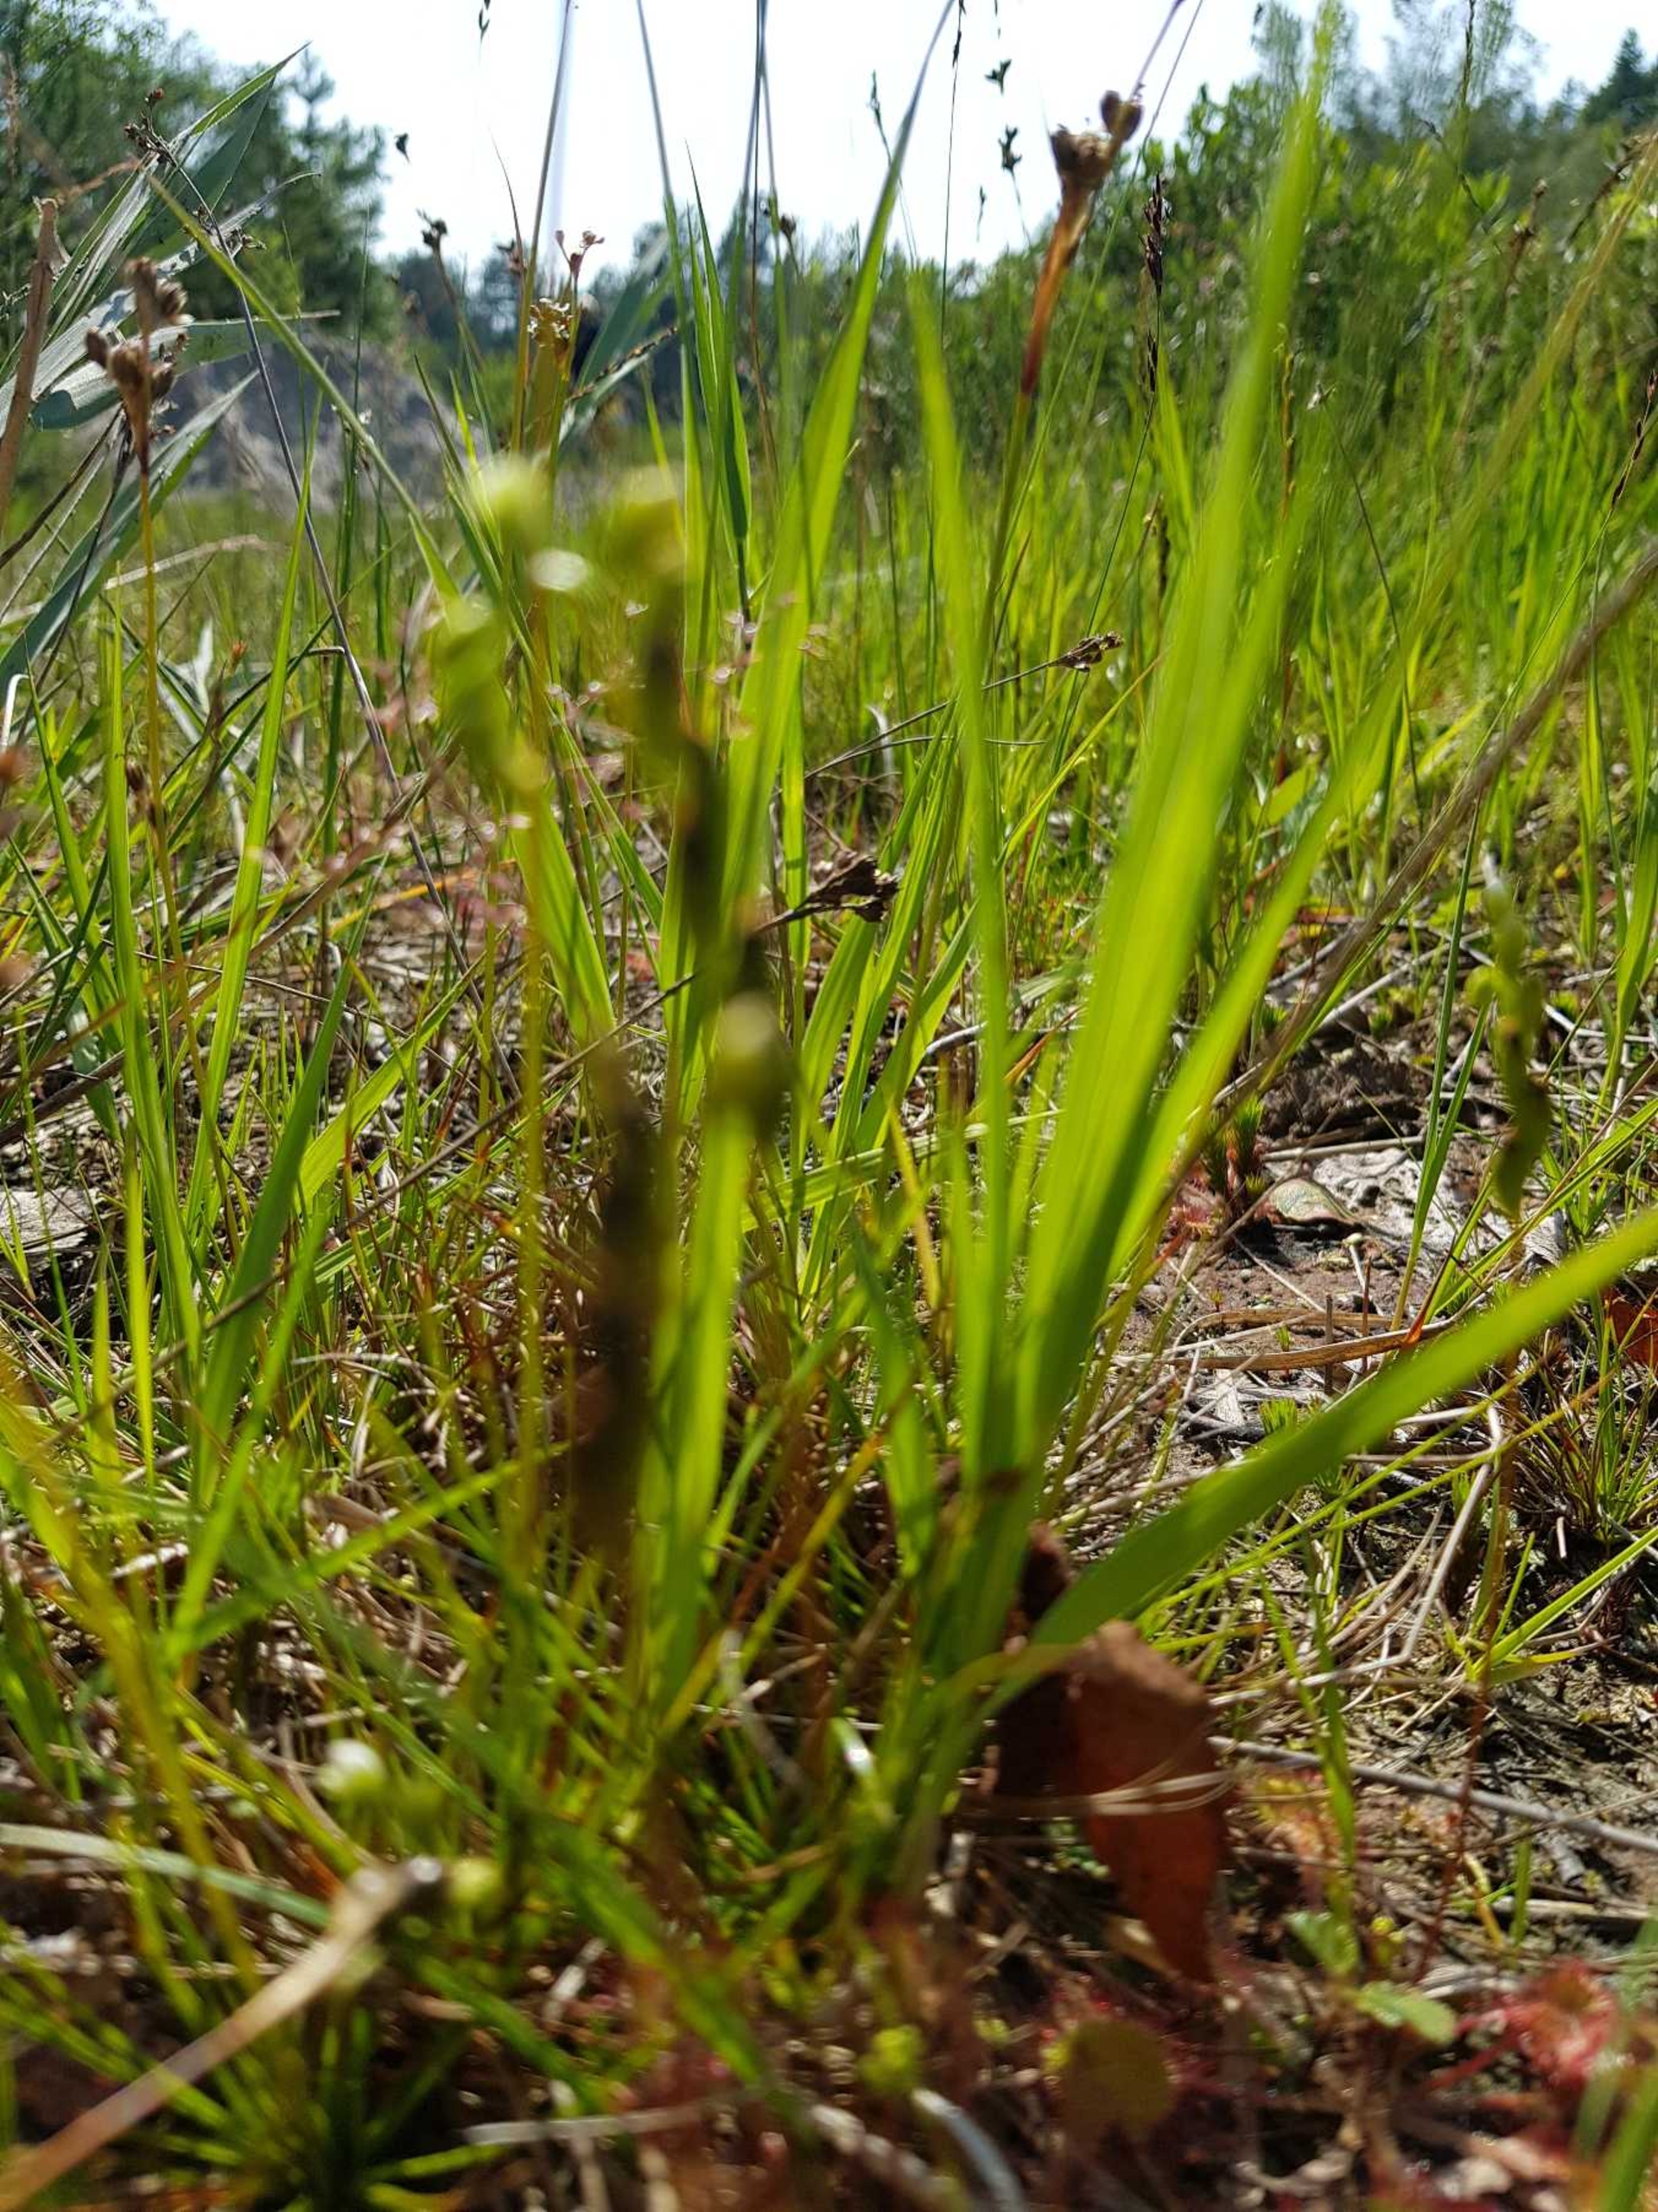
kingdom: Plantae
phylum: Tracheophyta
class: Magnoliopsida
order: Caryophyllales
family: Droseraceae
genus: Drosera
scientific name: Drosera rotundifolia
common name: Rundbladet soldug
